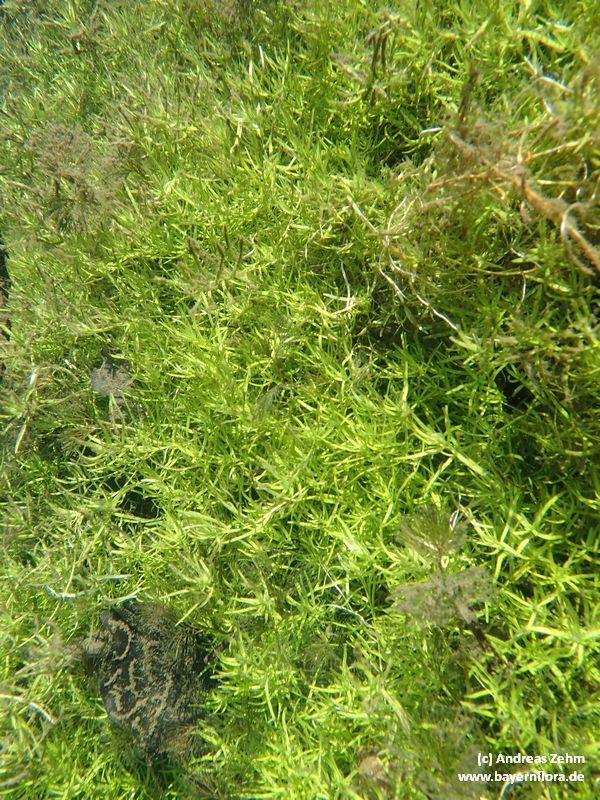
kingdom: Plantae
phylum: Tracheophyta
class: Magnoliopsida
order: Lamiales
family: Plantaginaceae
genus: Callitriche
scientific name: Callitriche
